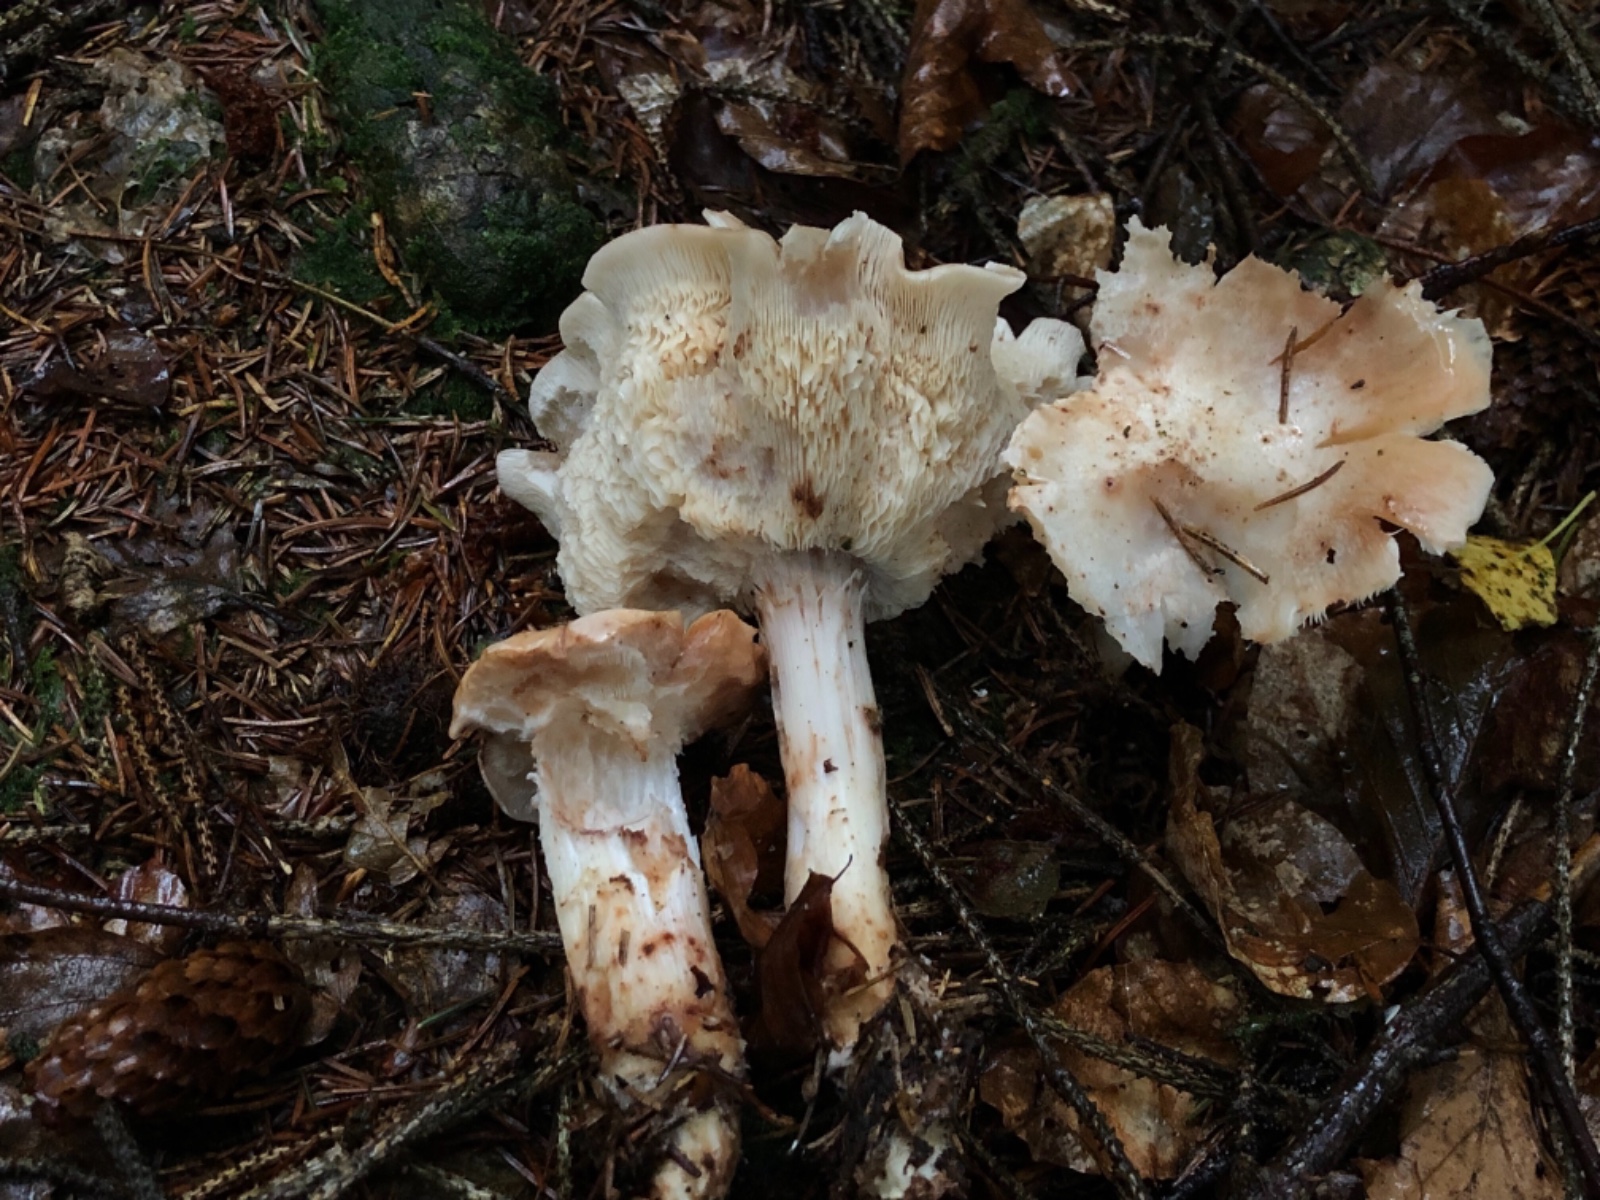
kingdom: Fungi
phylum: Basidiomycota
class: Agaricomycetes
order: Agaricales
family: Omphalotaceae
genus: Rhodocollybia
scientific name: Rhodocollybia maculata
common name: plettet fladhat
